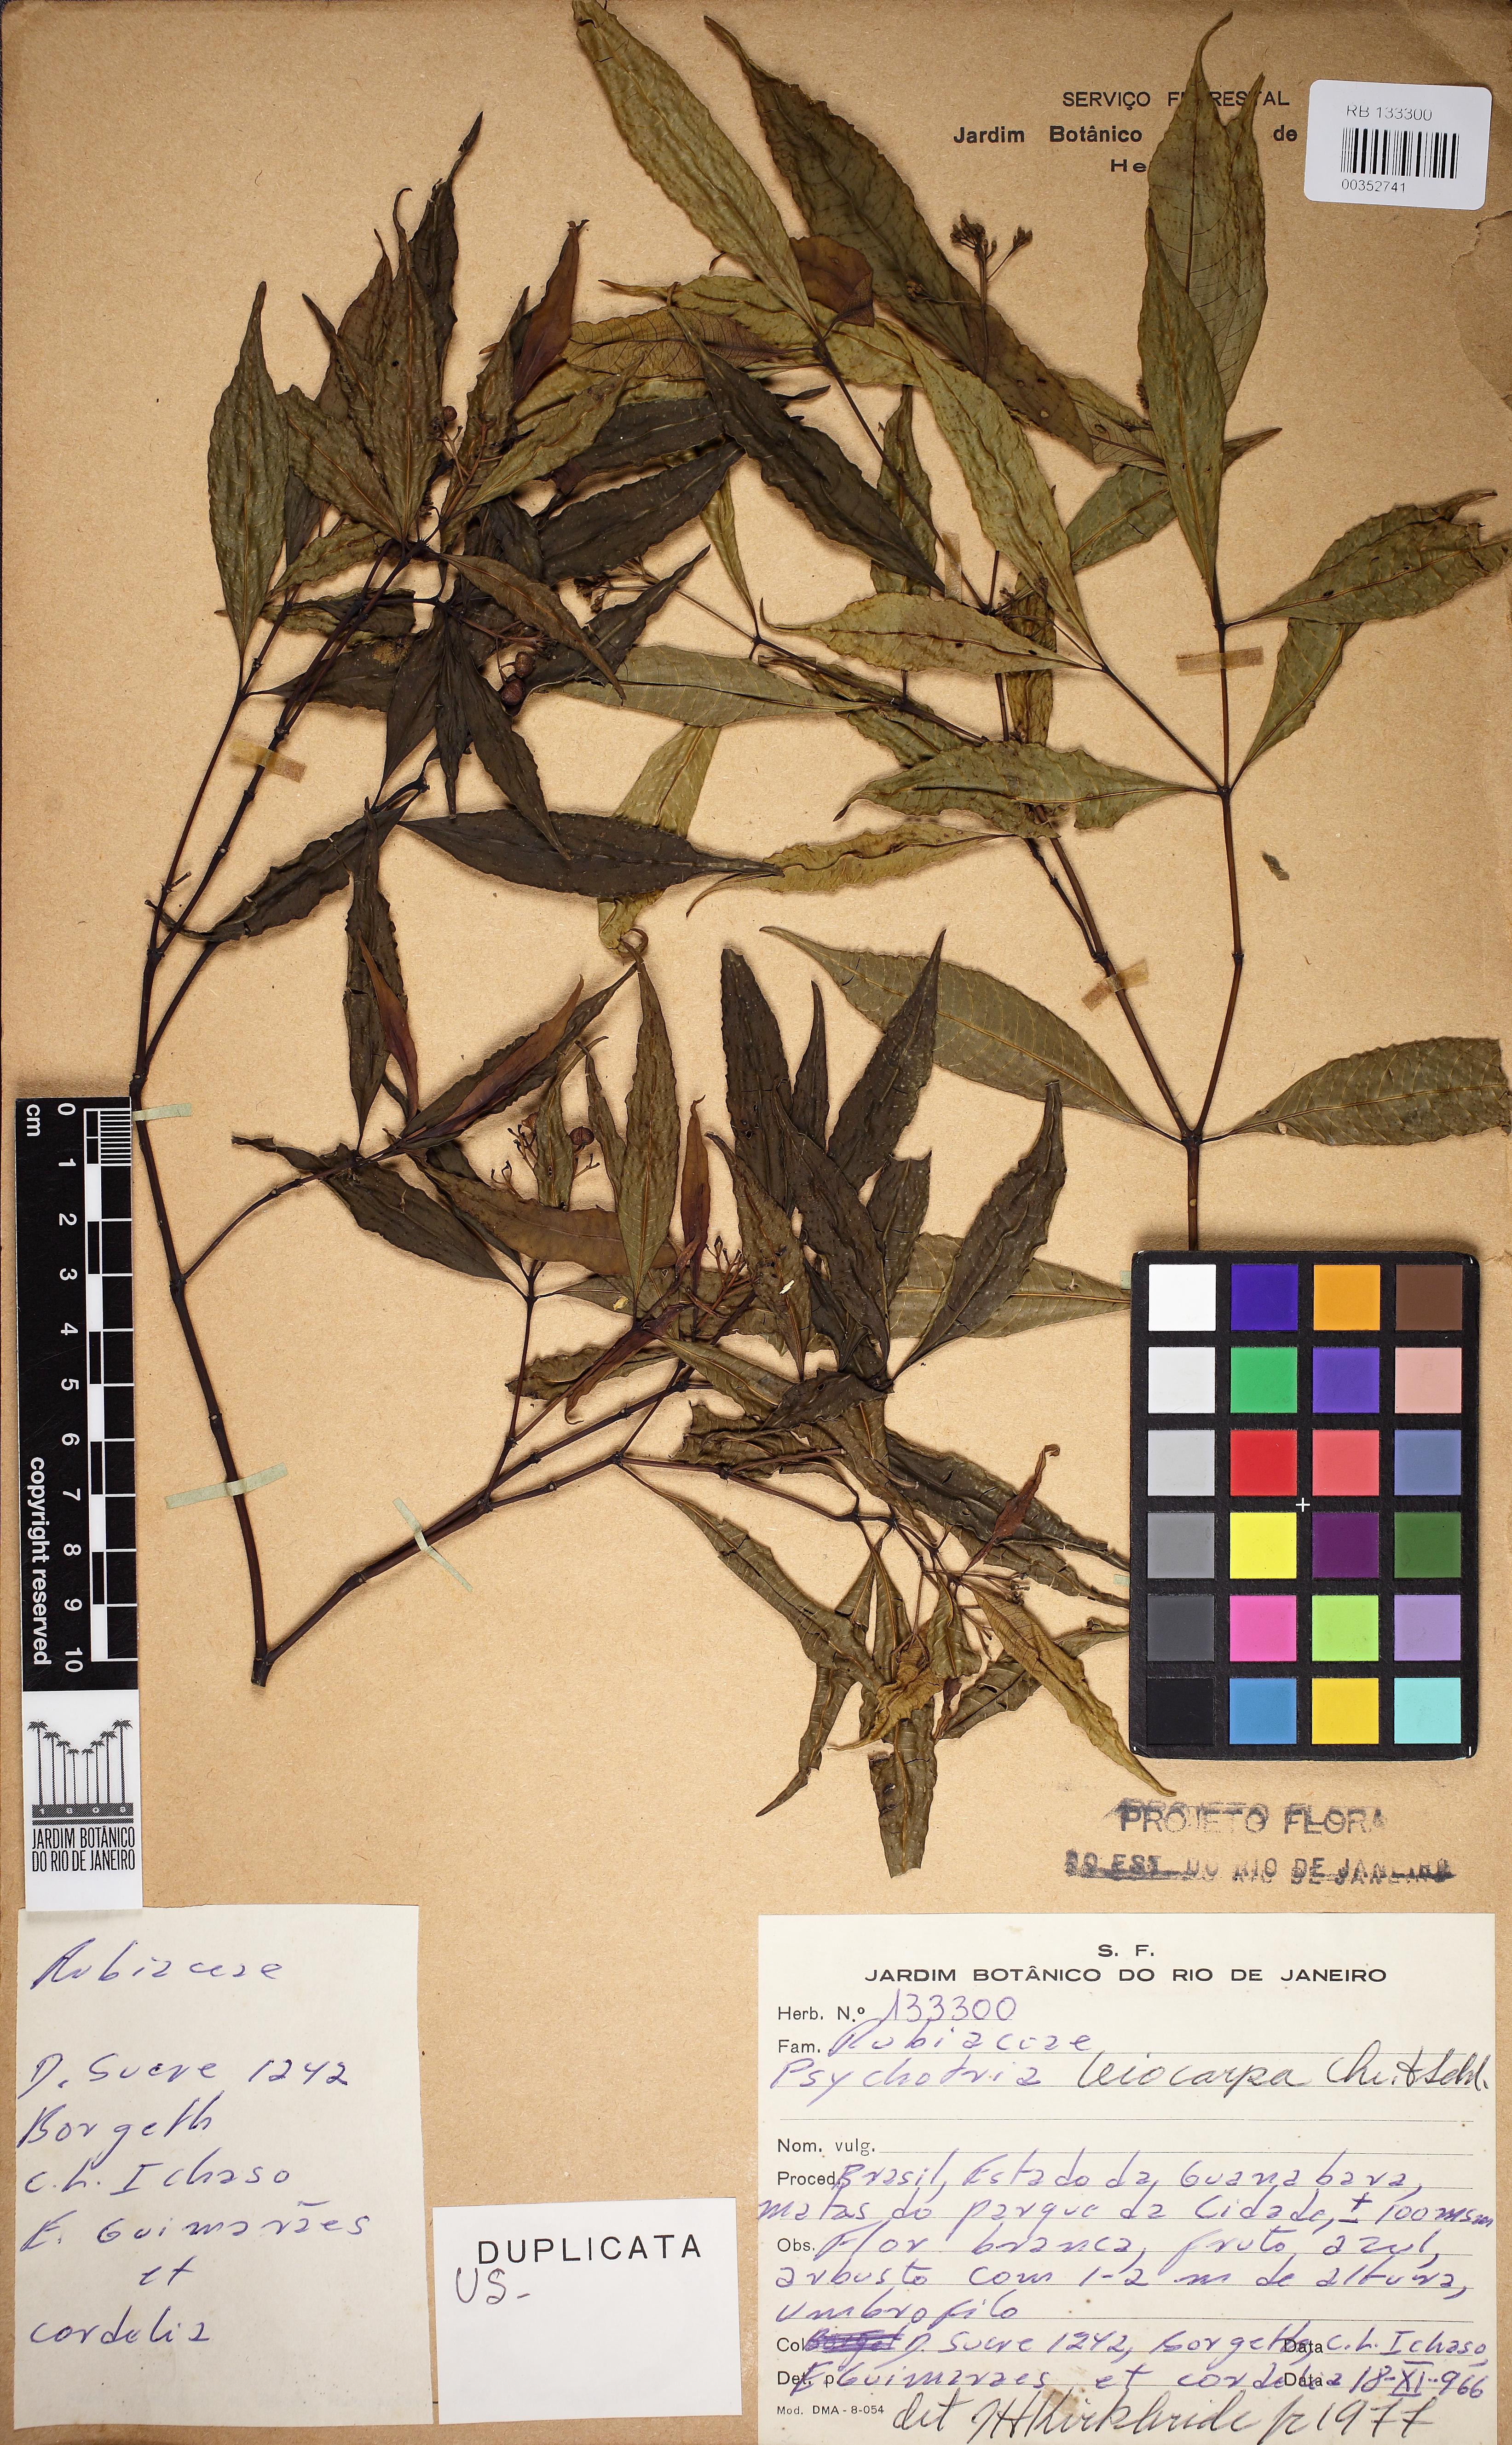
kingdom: Plantae
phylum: Tracheophyta
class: Magnoliopsida
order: Gentianales
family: Rubiaceae
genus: Psychotria
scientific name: Psychotria leiocarpa
